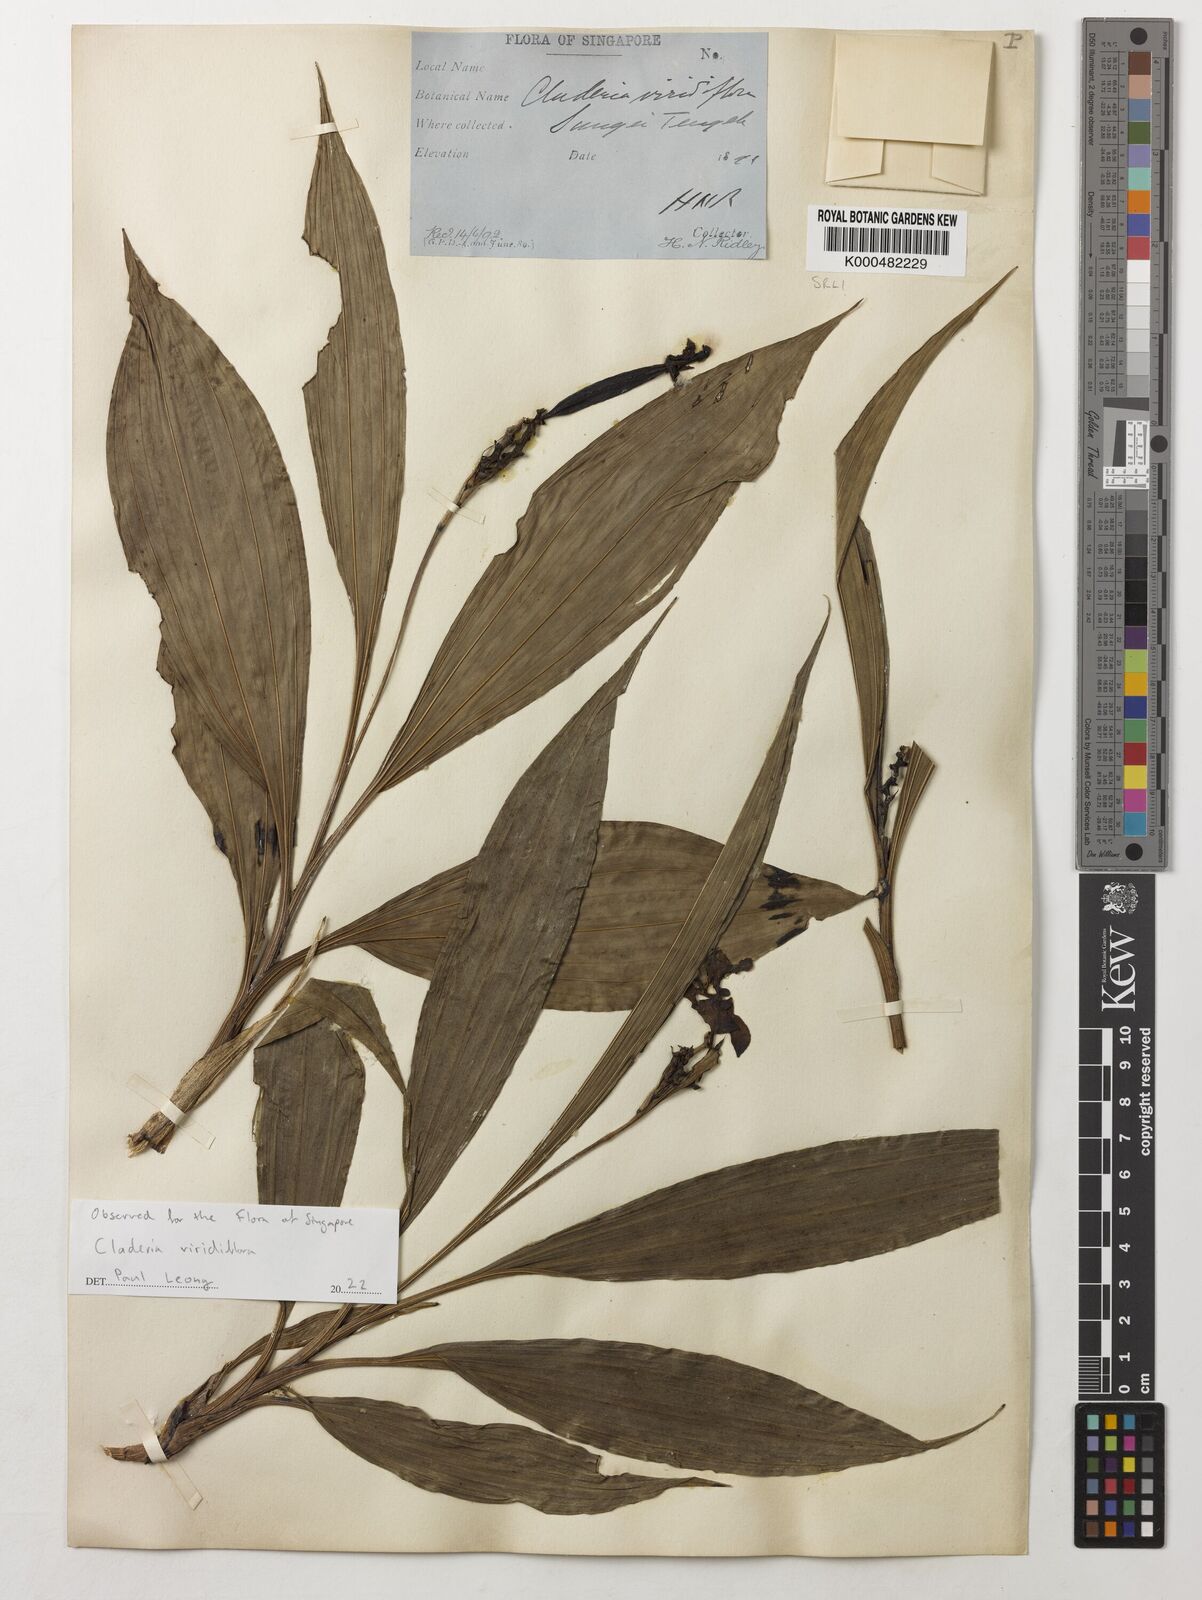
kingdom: Plantae
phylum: Tracheophyta
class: Liliopsida
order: Asparagales
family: Orchidaceae
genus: Claderia
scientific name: Claderia viridiflora
